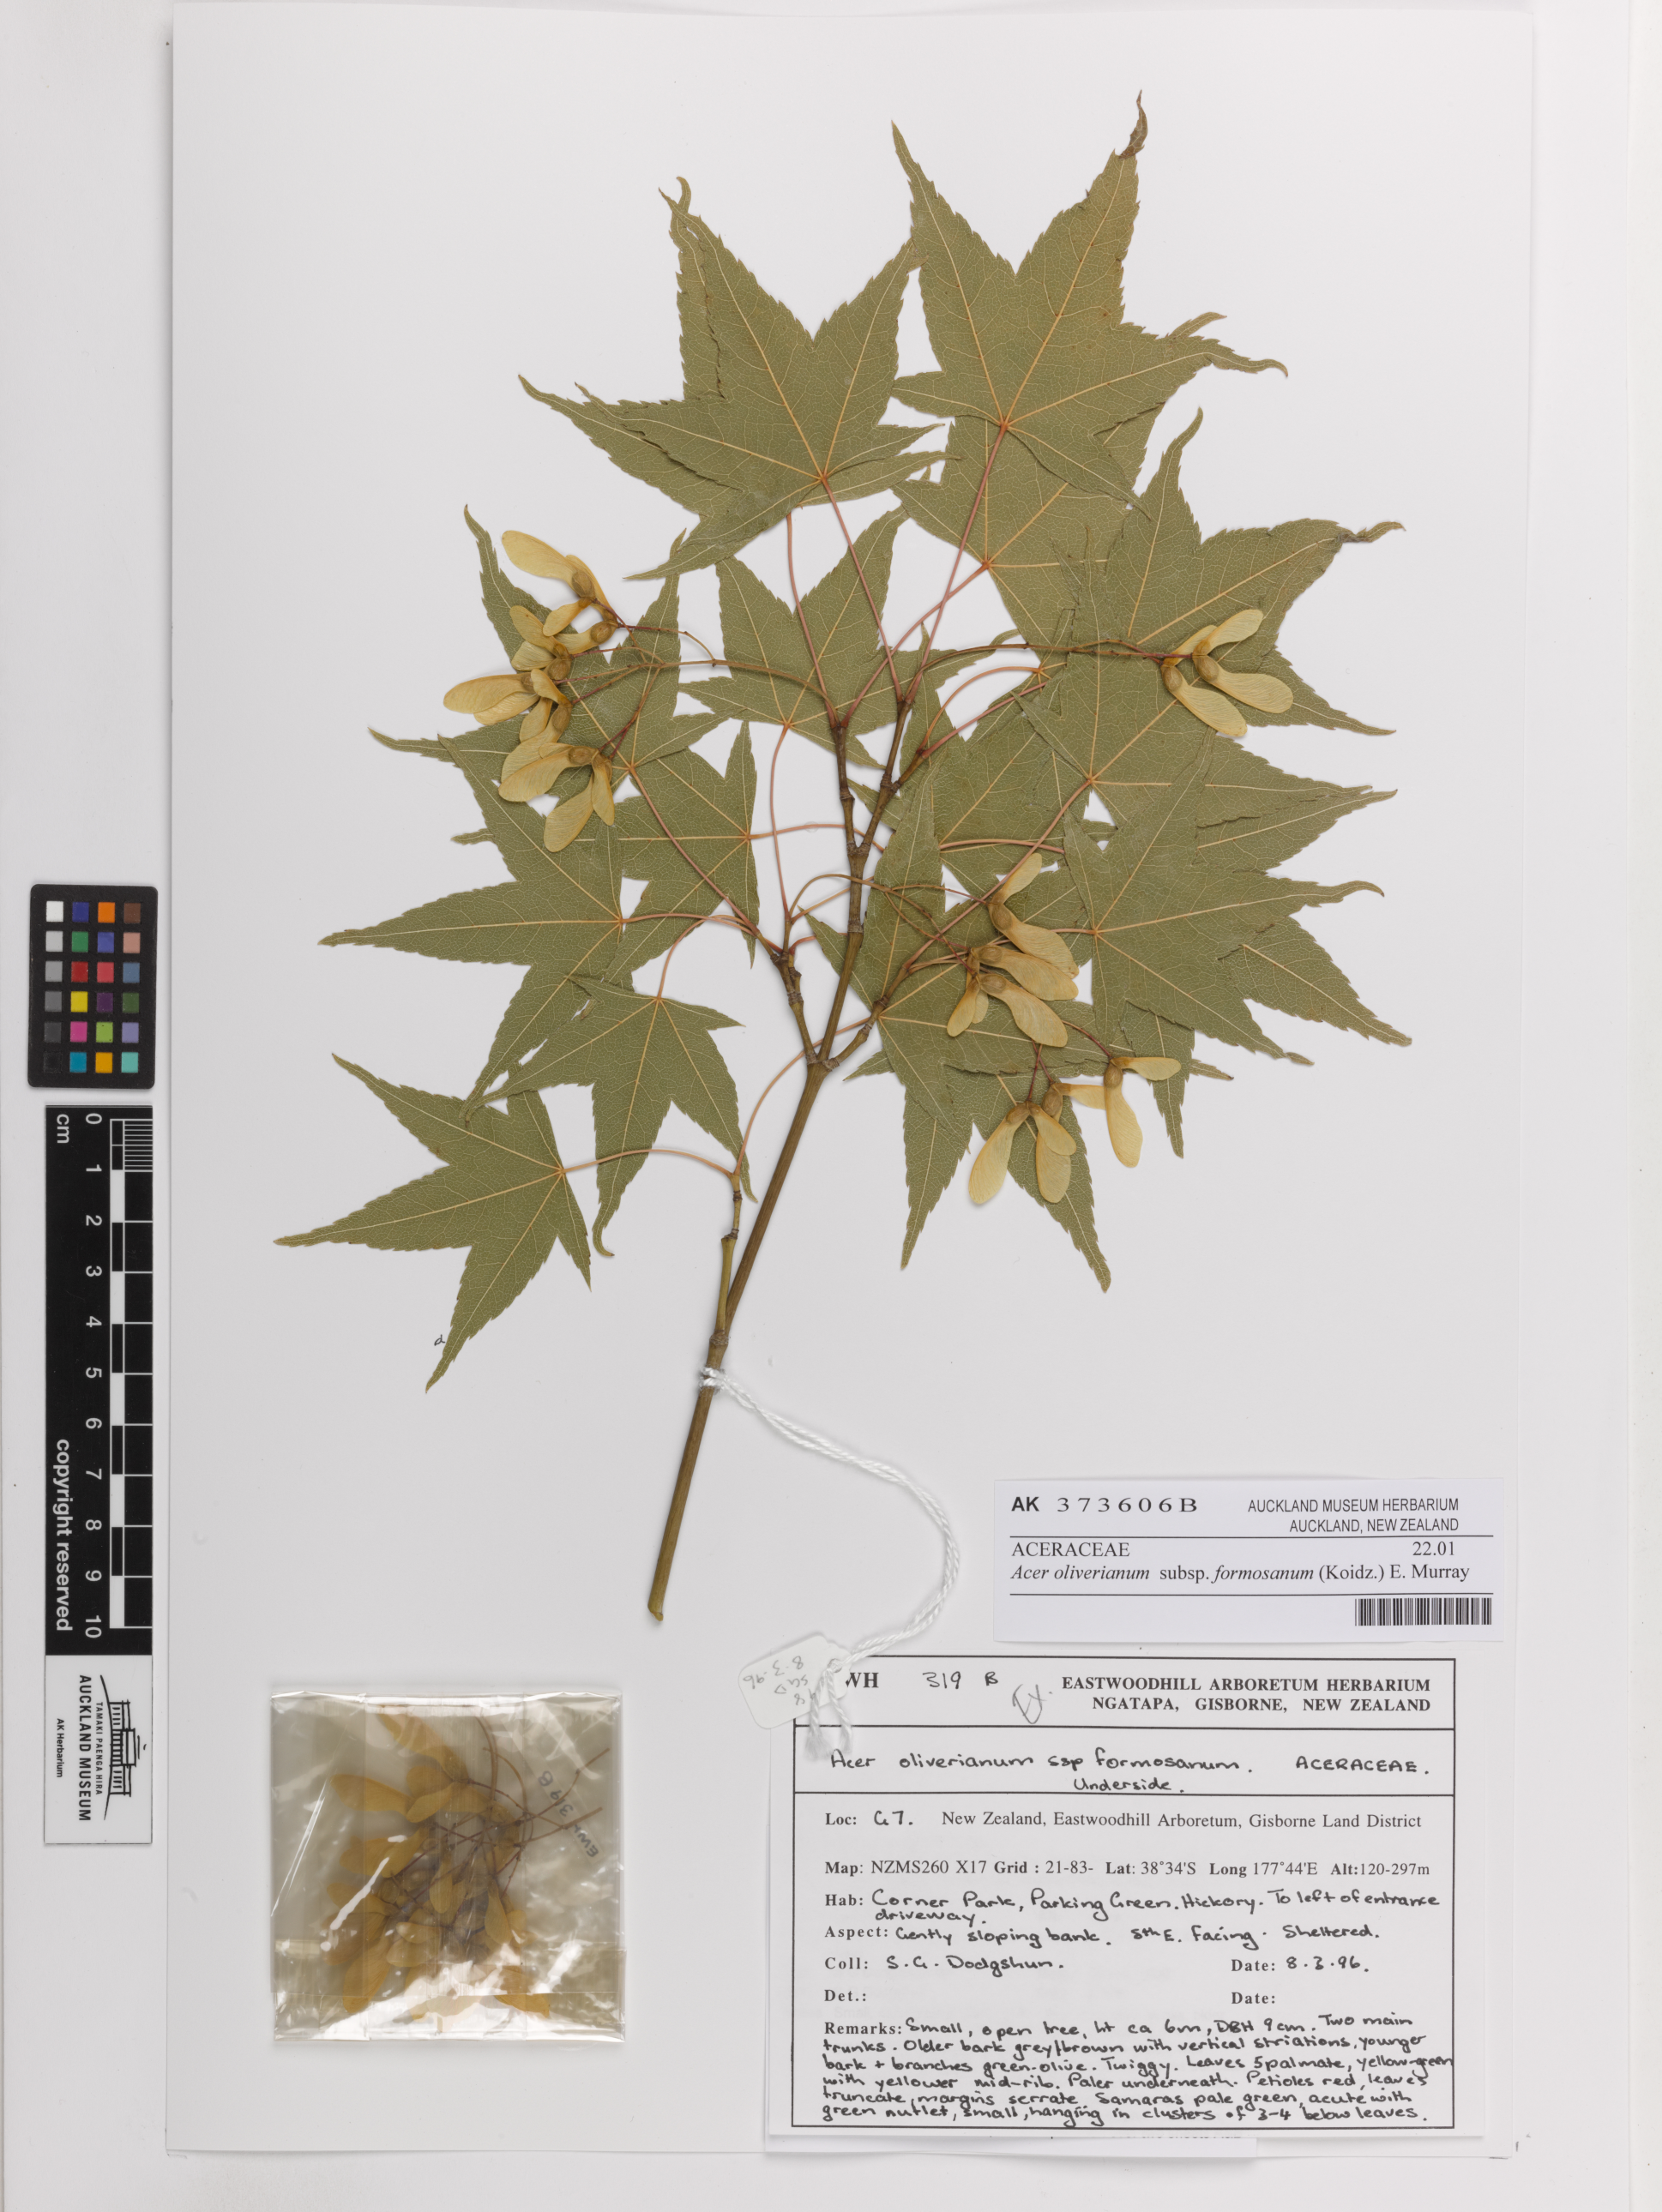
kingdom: Plantae
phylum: Tracheophyta
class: Magnoliopsida
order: Sapindales
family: Sapindaceae
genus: Acer
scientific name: Acer serrulatum
